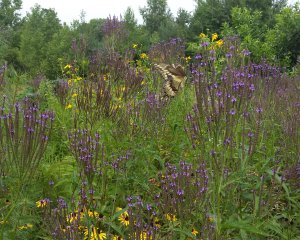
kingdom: Animalia
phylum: Arthropoda
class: Insecta
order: Lepidoptera
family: Papilionidae
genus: Papilio
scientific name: Papilio cresphontes
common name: Eastern Giant Swallowtail
